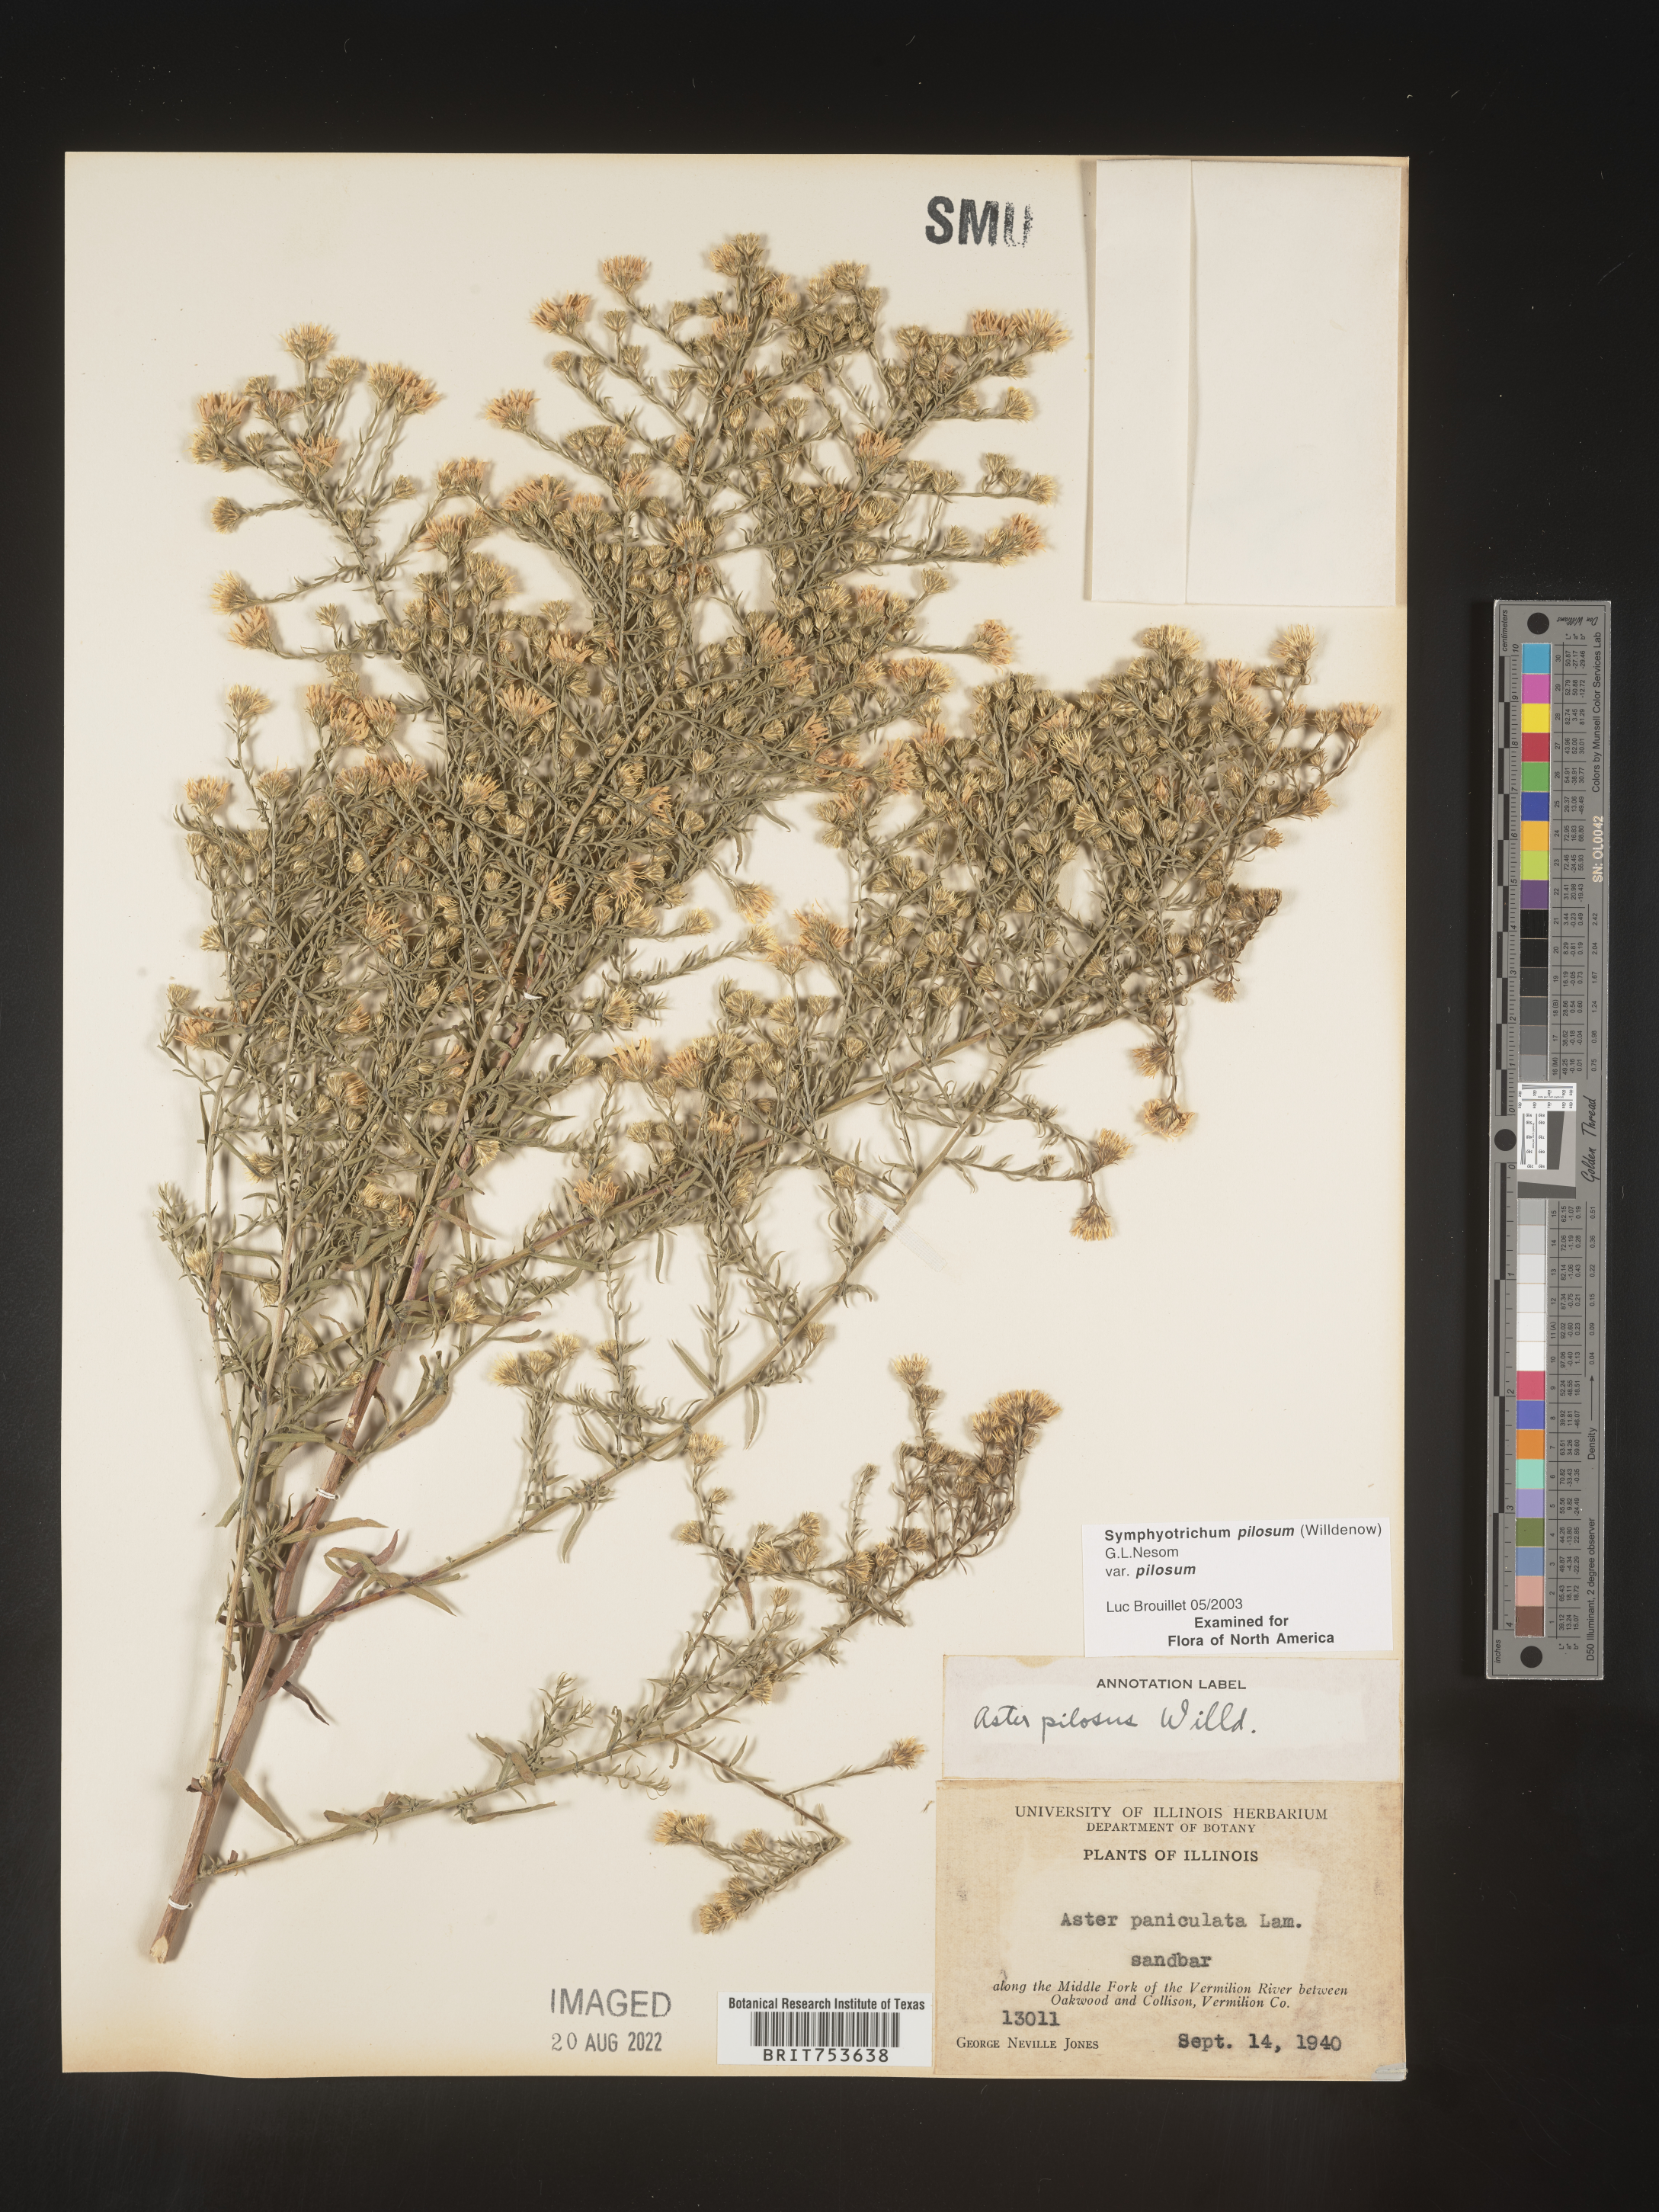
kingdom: Plantae
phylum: Tracheophyta
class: Magnoliopsida
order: Asterales
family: Asteraceae
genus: Symphyotrichum
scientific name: Symphyotrichum pilosum
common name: Awl aster
